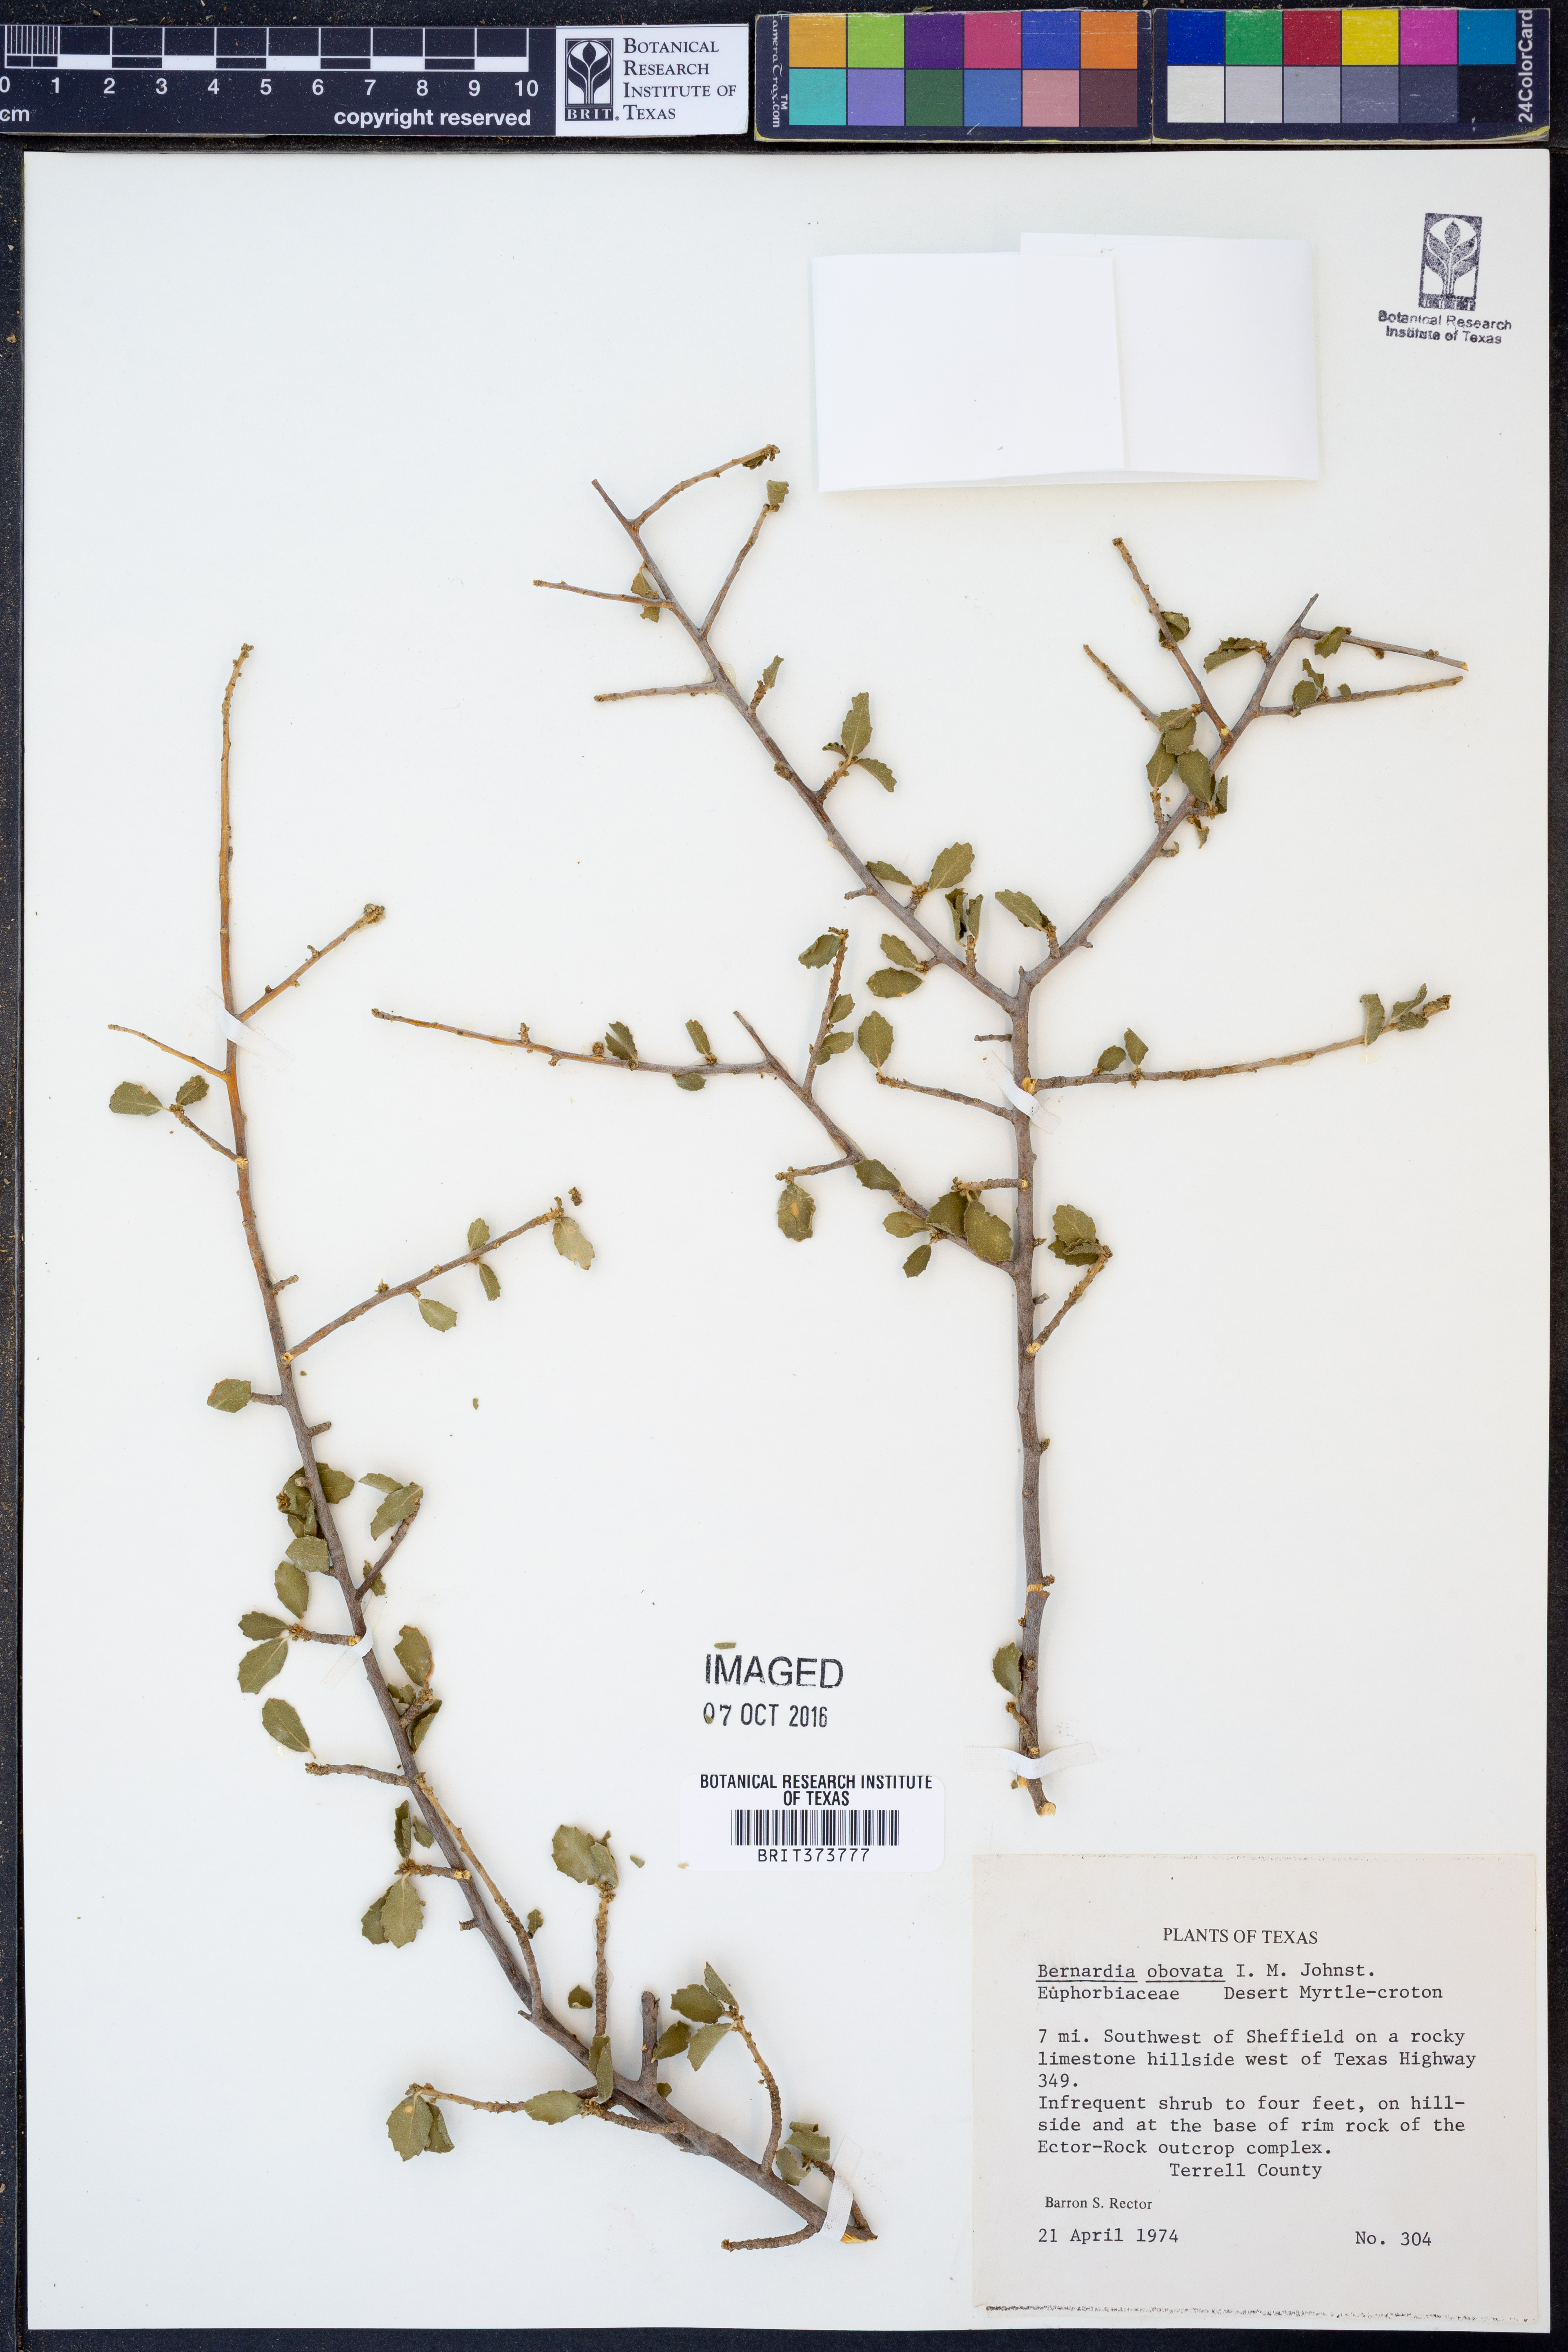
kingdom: Plantae
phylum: Tracheophyta
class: Magnoliopsida
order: Malpighiales
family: Euphorbiaceae
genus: Bernardia
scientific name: Bernardia obovata
